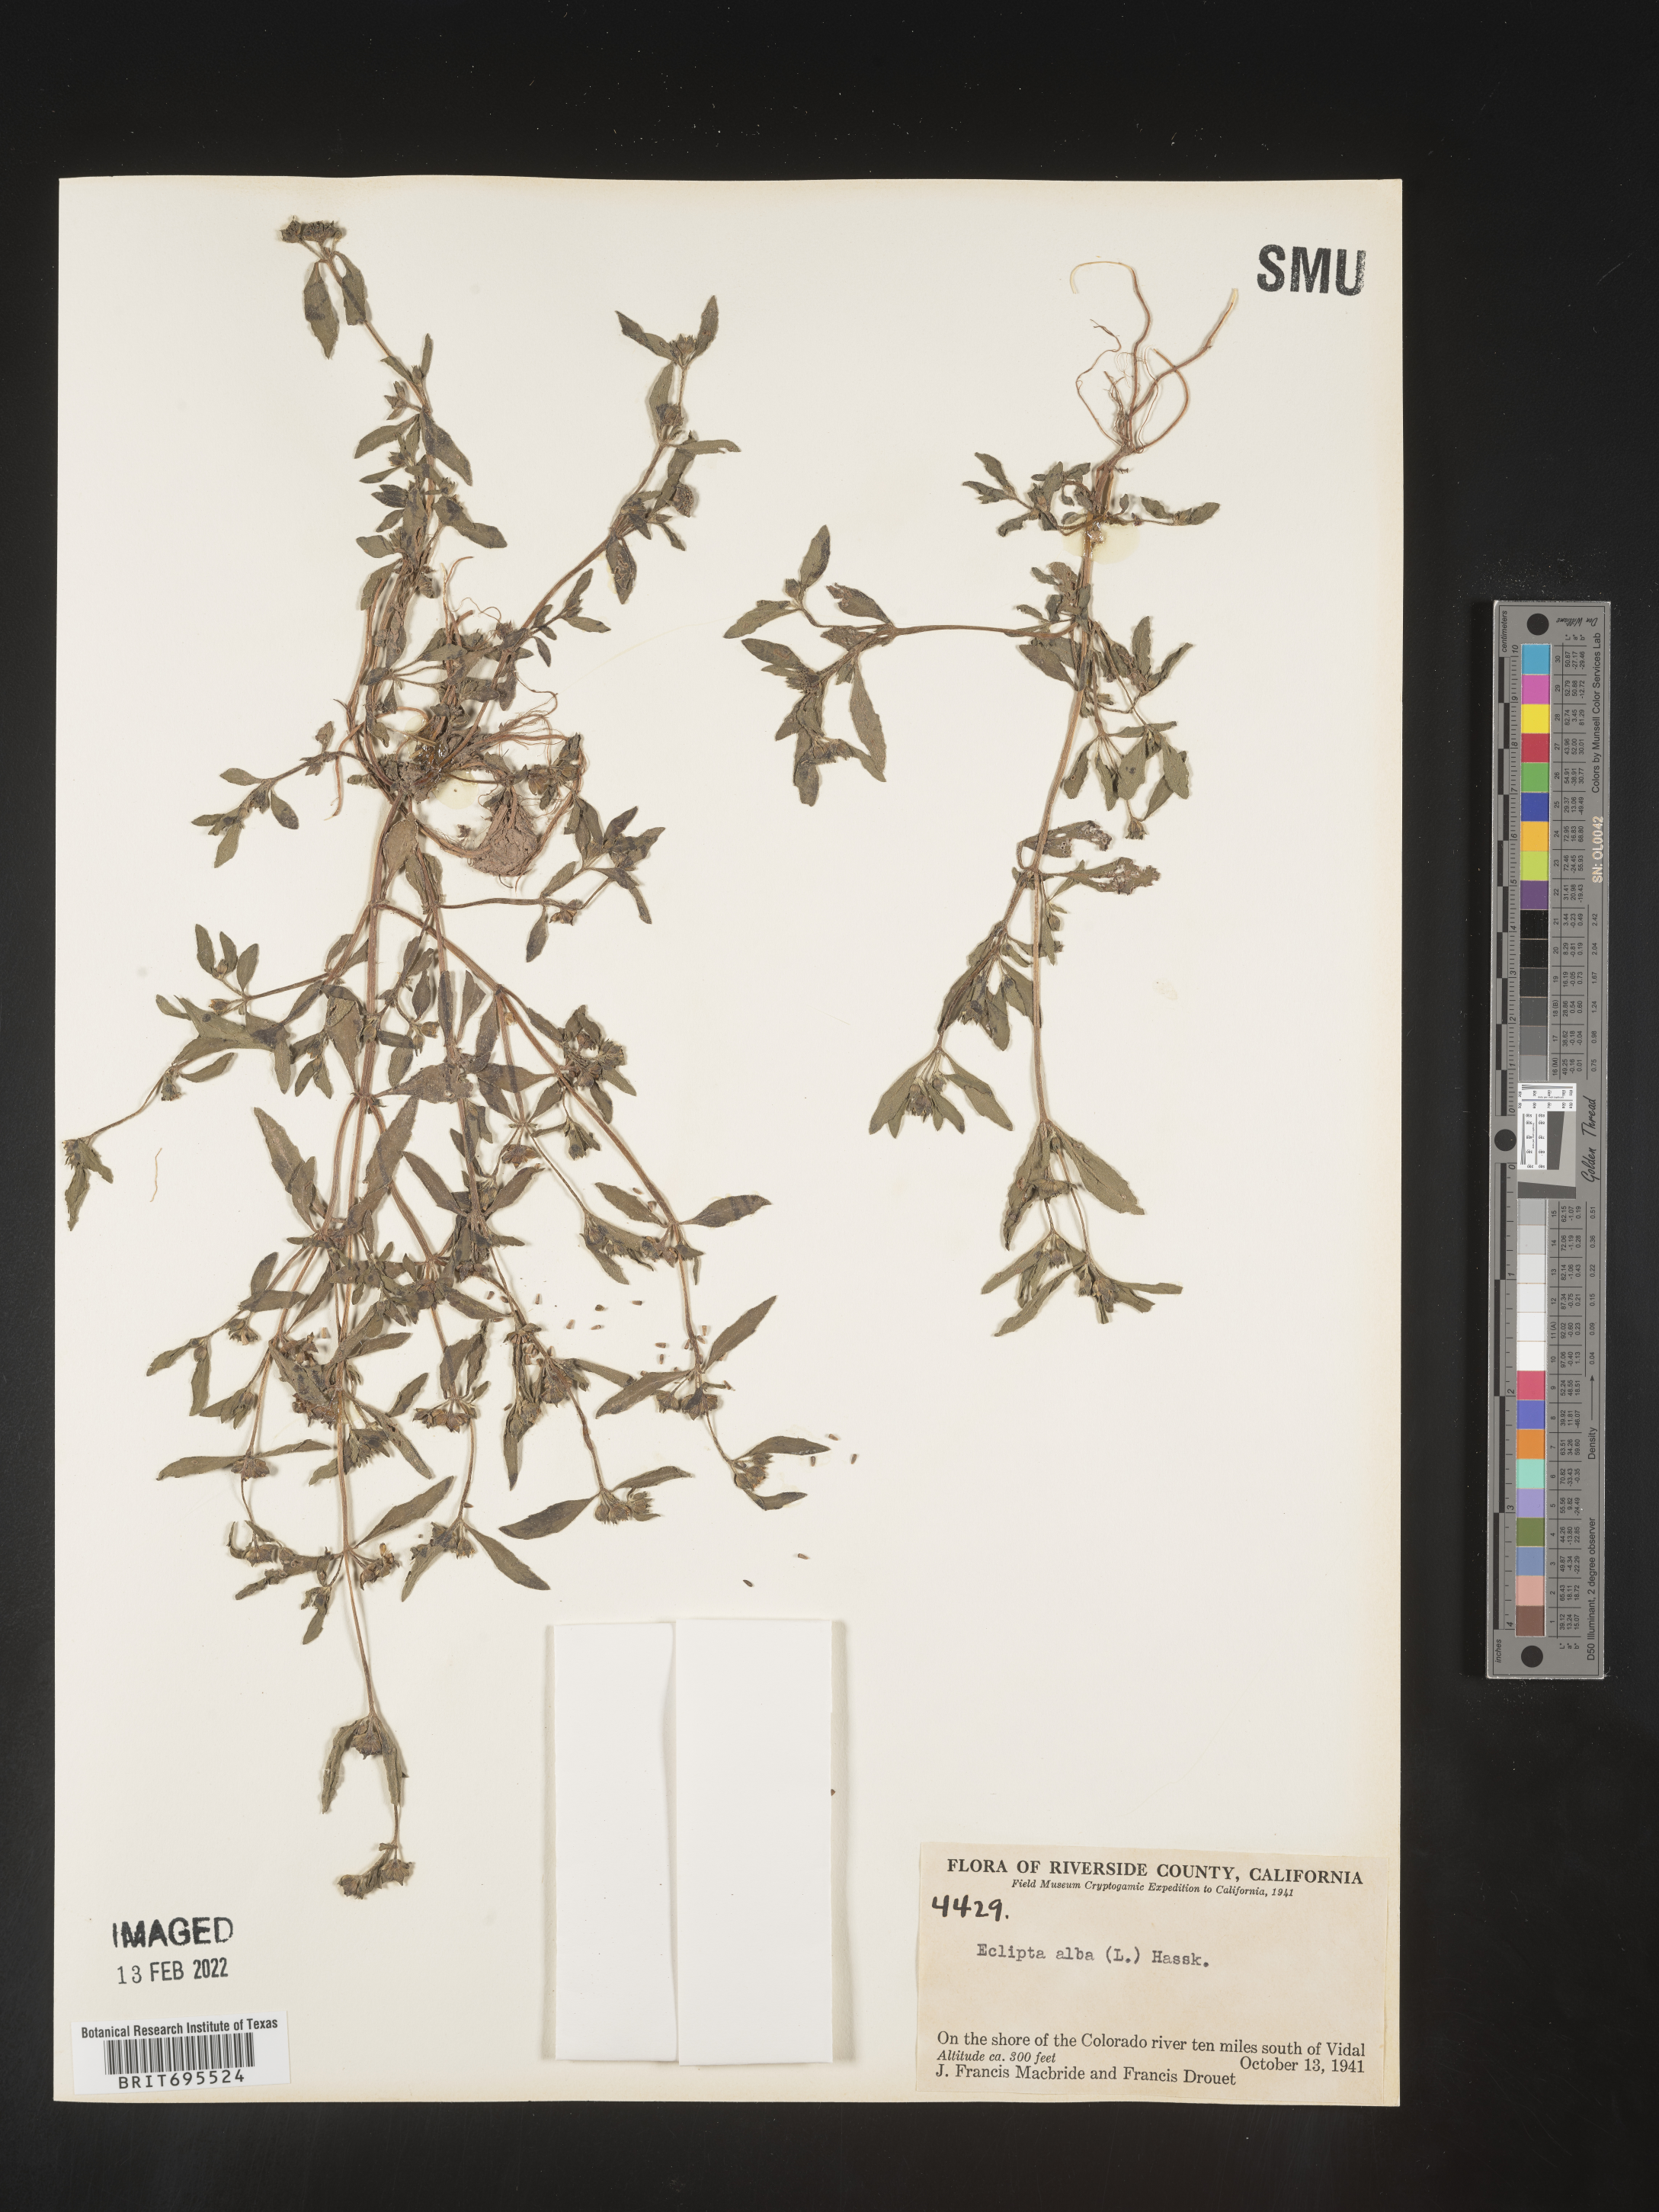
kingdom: Plantae
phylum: Tracheophyta
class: Magnoliopsida
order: Asterales
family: Asteraceae
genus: Eclipta
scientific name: Eclipta alba
